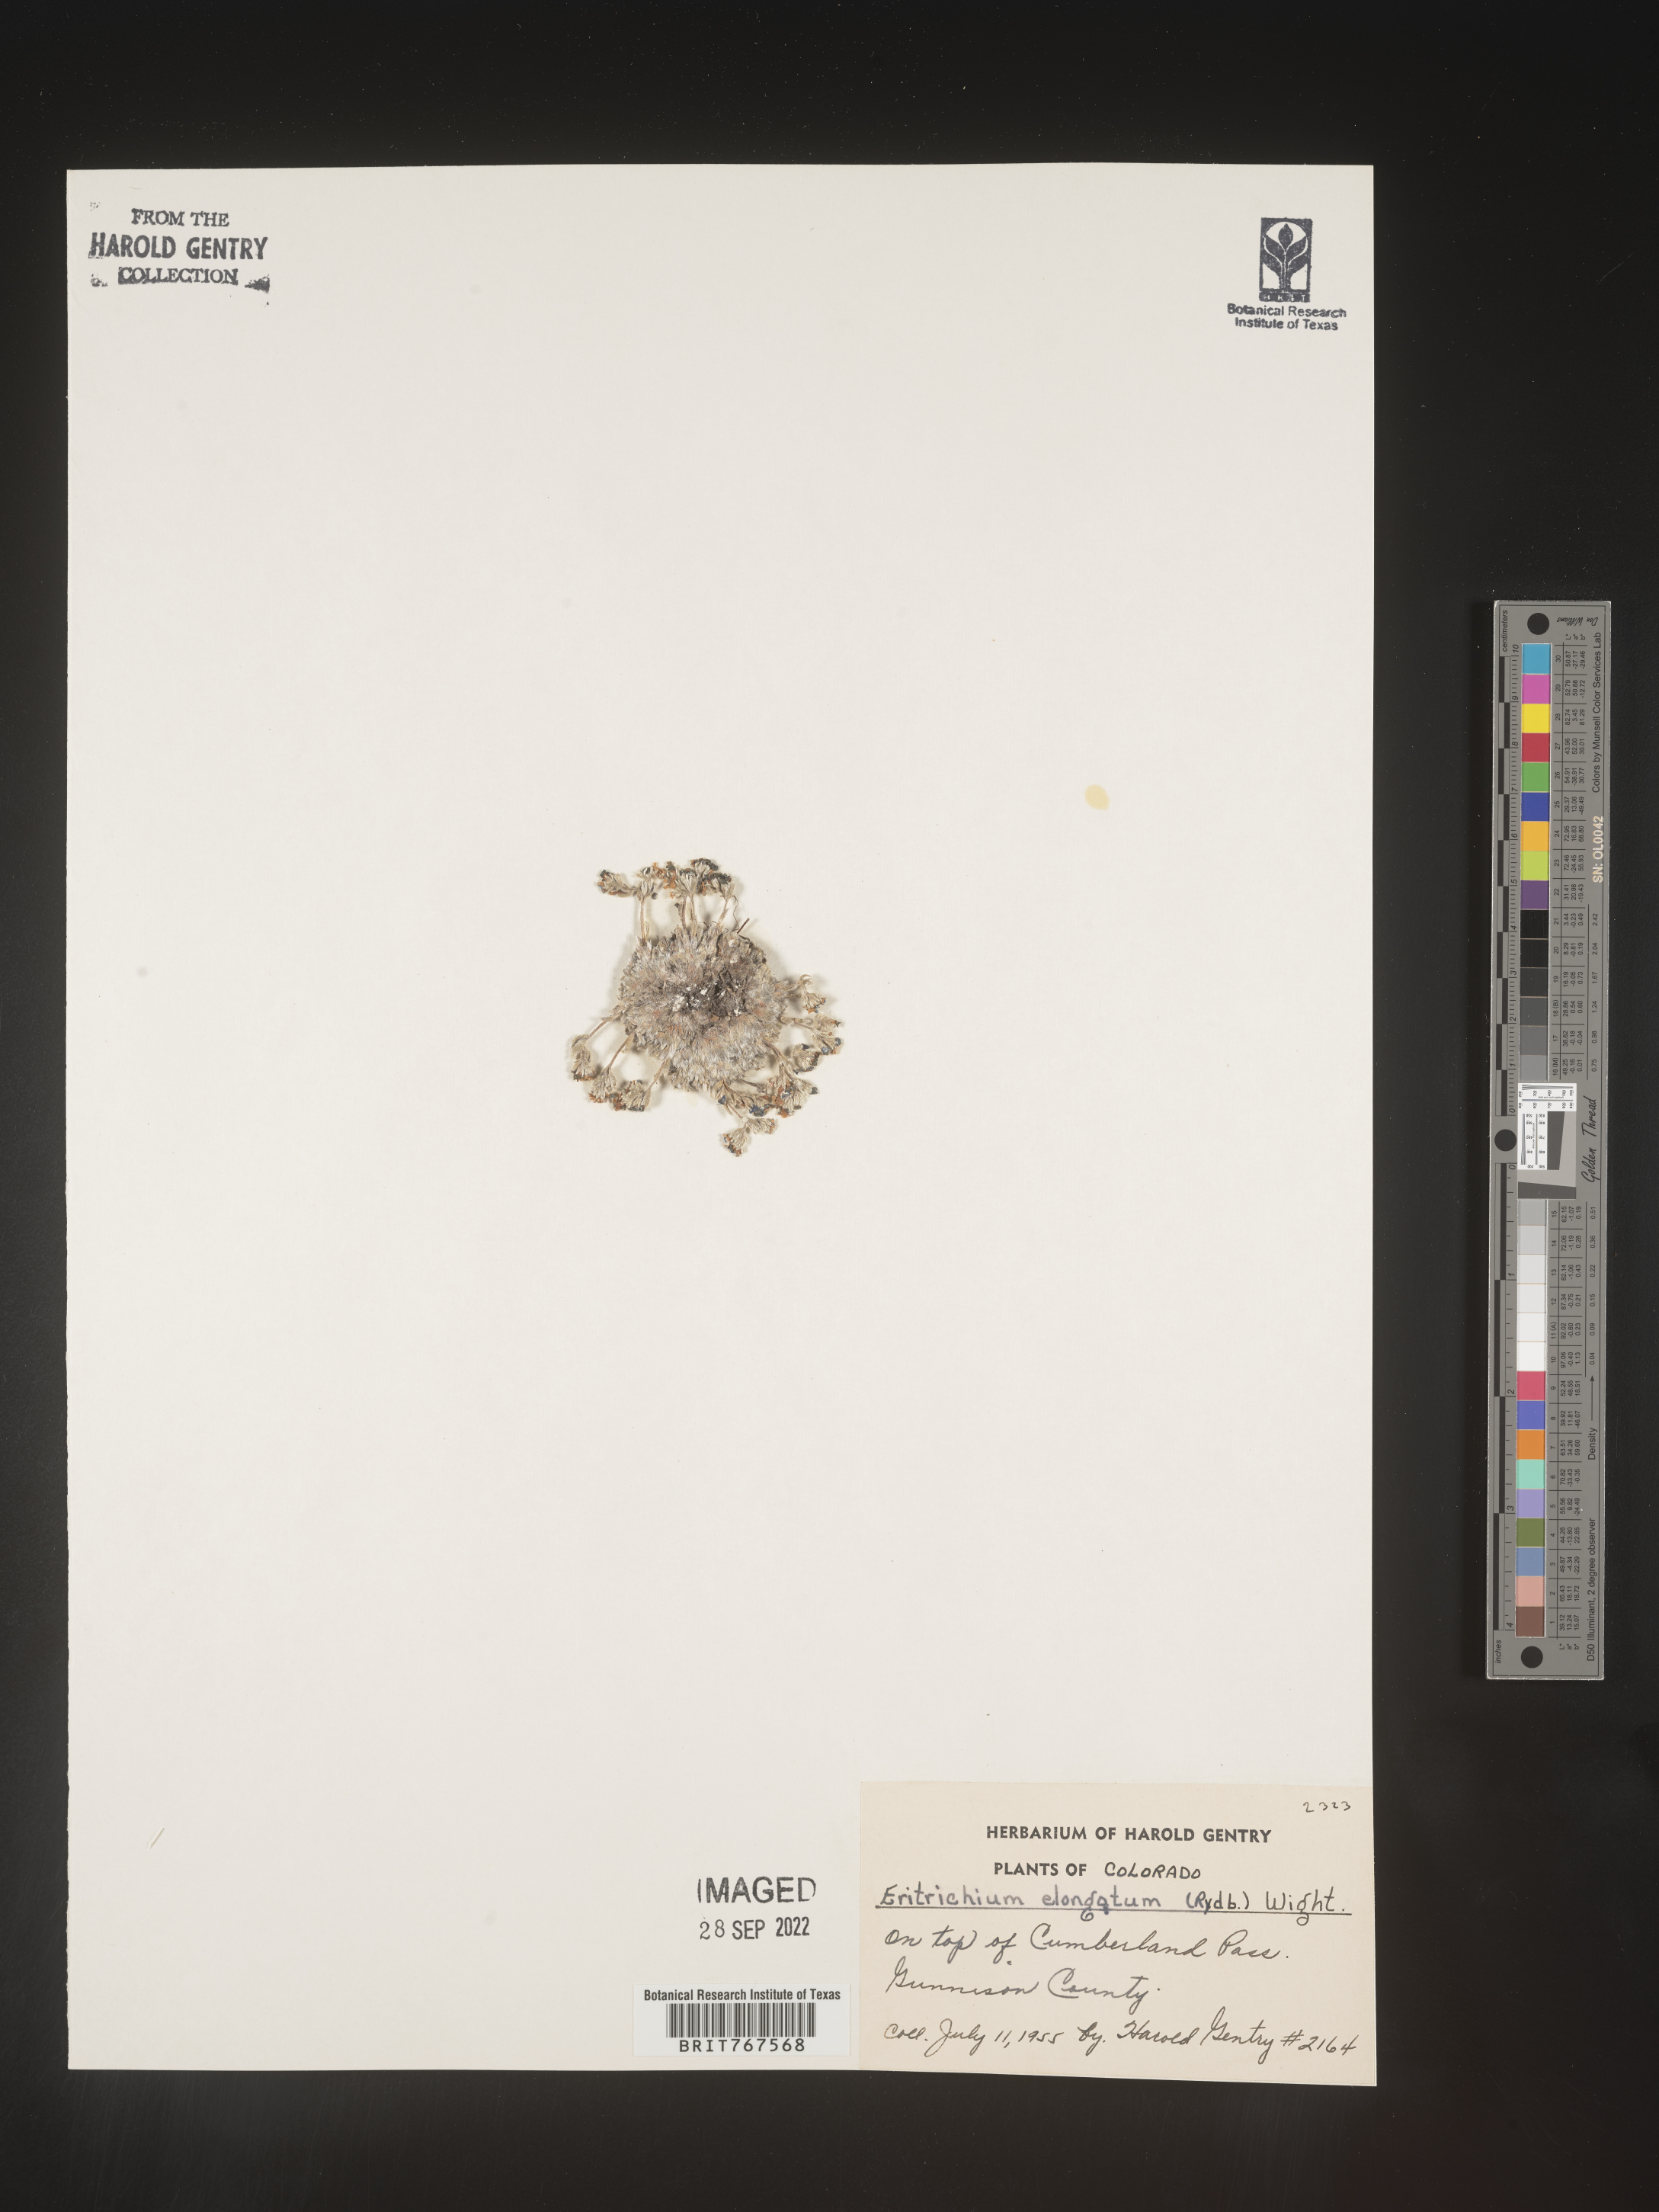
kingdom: Plantae
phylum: Tracheophyta
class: Magnoliopsida
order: Boraginales
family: Boraginaceae
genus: Eritrichium
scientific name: Eritrichium
